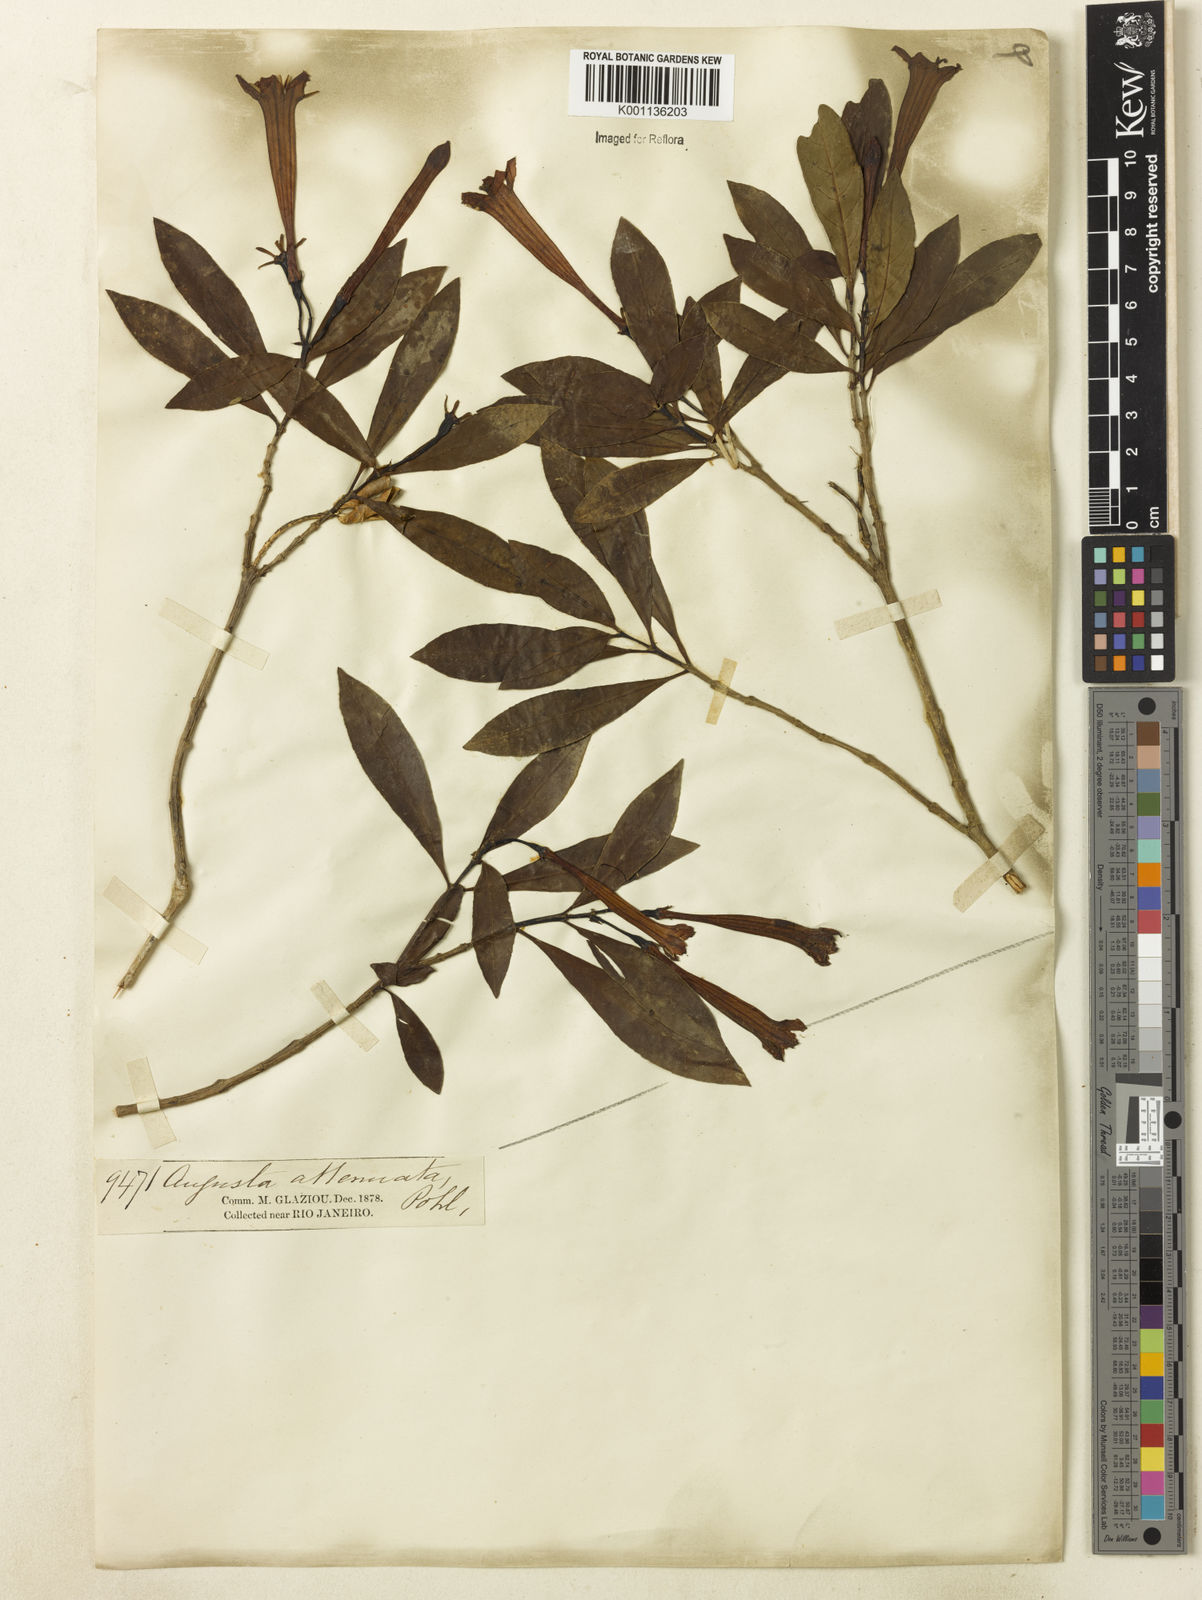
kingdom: Plantae
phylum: Tracheophyta
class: Magnoliopsida
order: Gentianales
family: Rubiaceae
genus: Augusta
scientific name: Augusta longifolia
